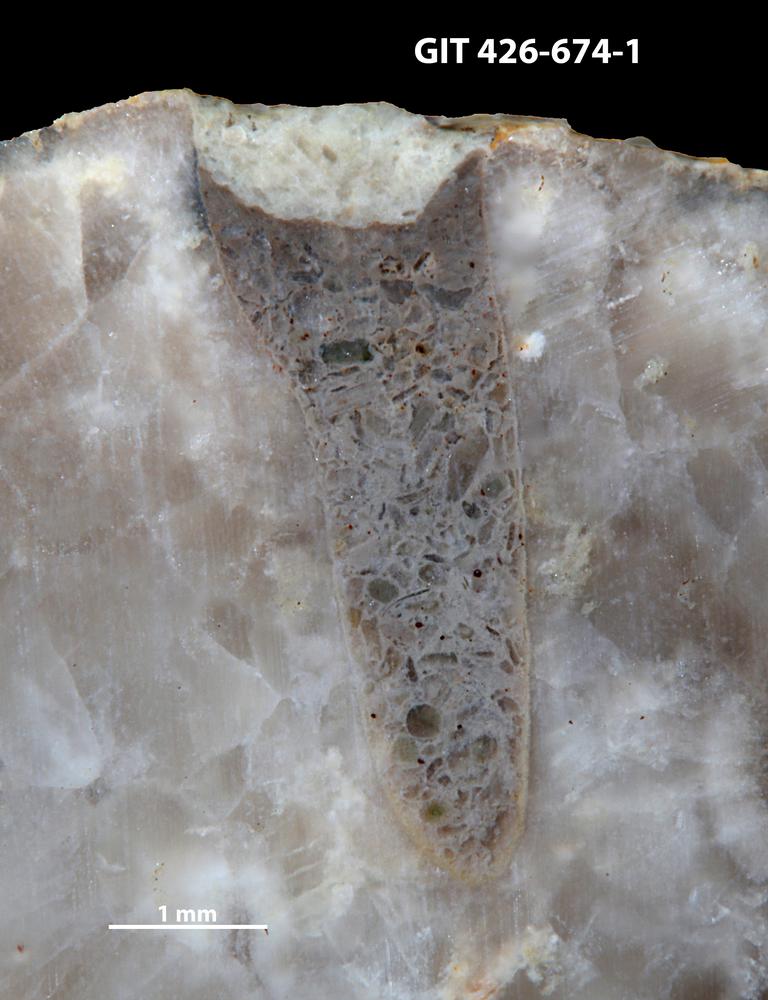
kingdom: Animalia
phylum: Sipuncula
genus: Trypanites
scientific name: Trypanites
